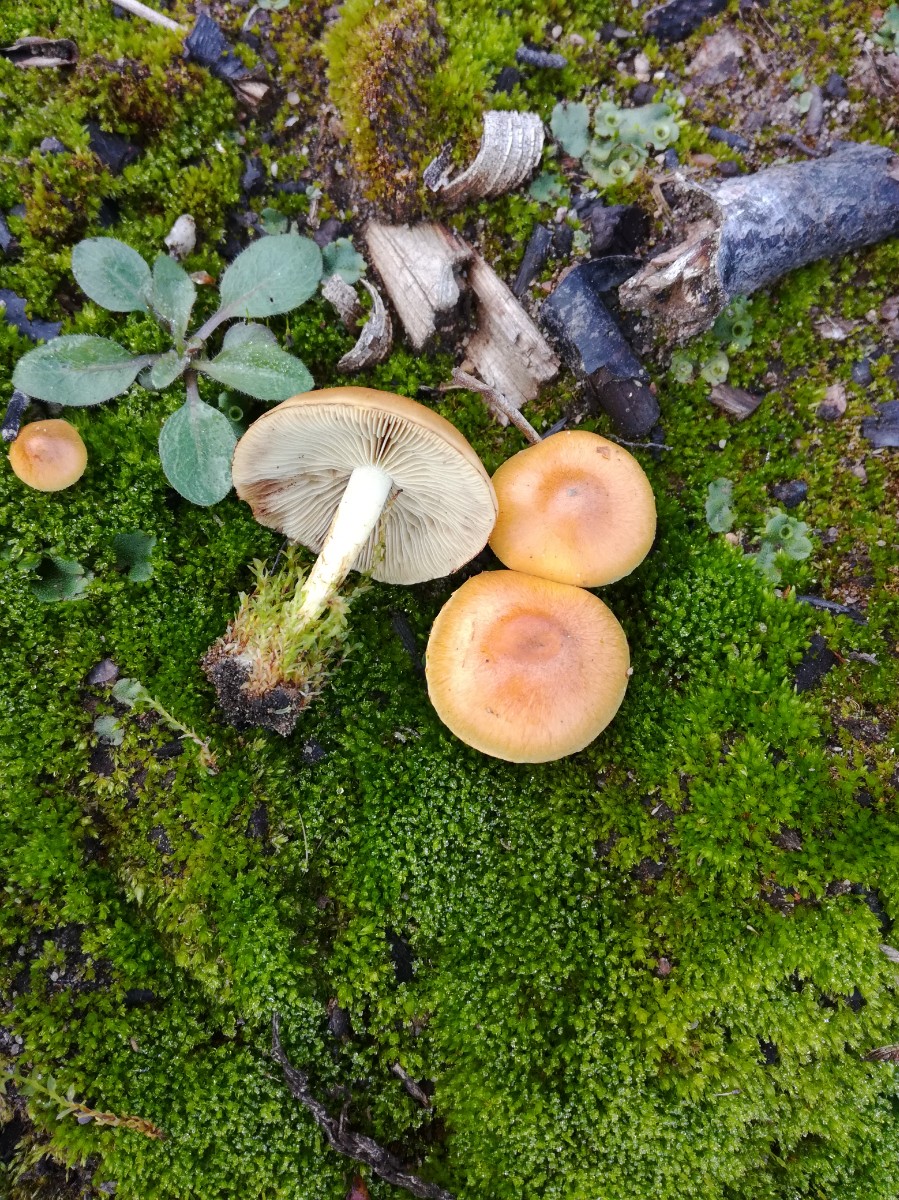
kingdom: Fungi
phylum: Basidiomycota
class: Agaricomycetes
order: Agaricales
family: Strophariaceae
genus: Pholiota
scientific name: Pholiota carbonaria
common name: kul-skælhat
